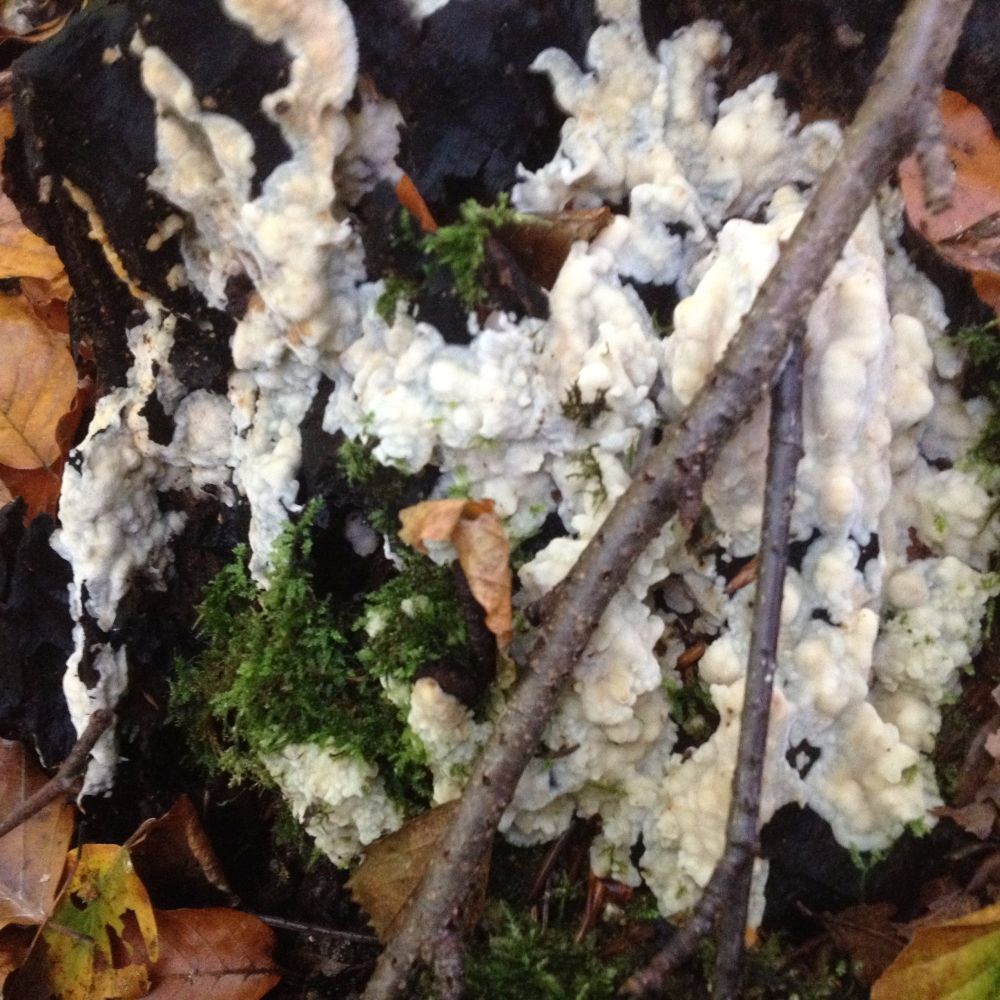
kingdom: Fungi
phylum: Basidiomycota
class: Agaricomycetes
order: Polyporales
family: Meruliaceae
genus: Physisporinus
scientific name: Physisporinus vitreus
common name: mastesvamp
